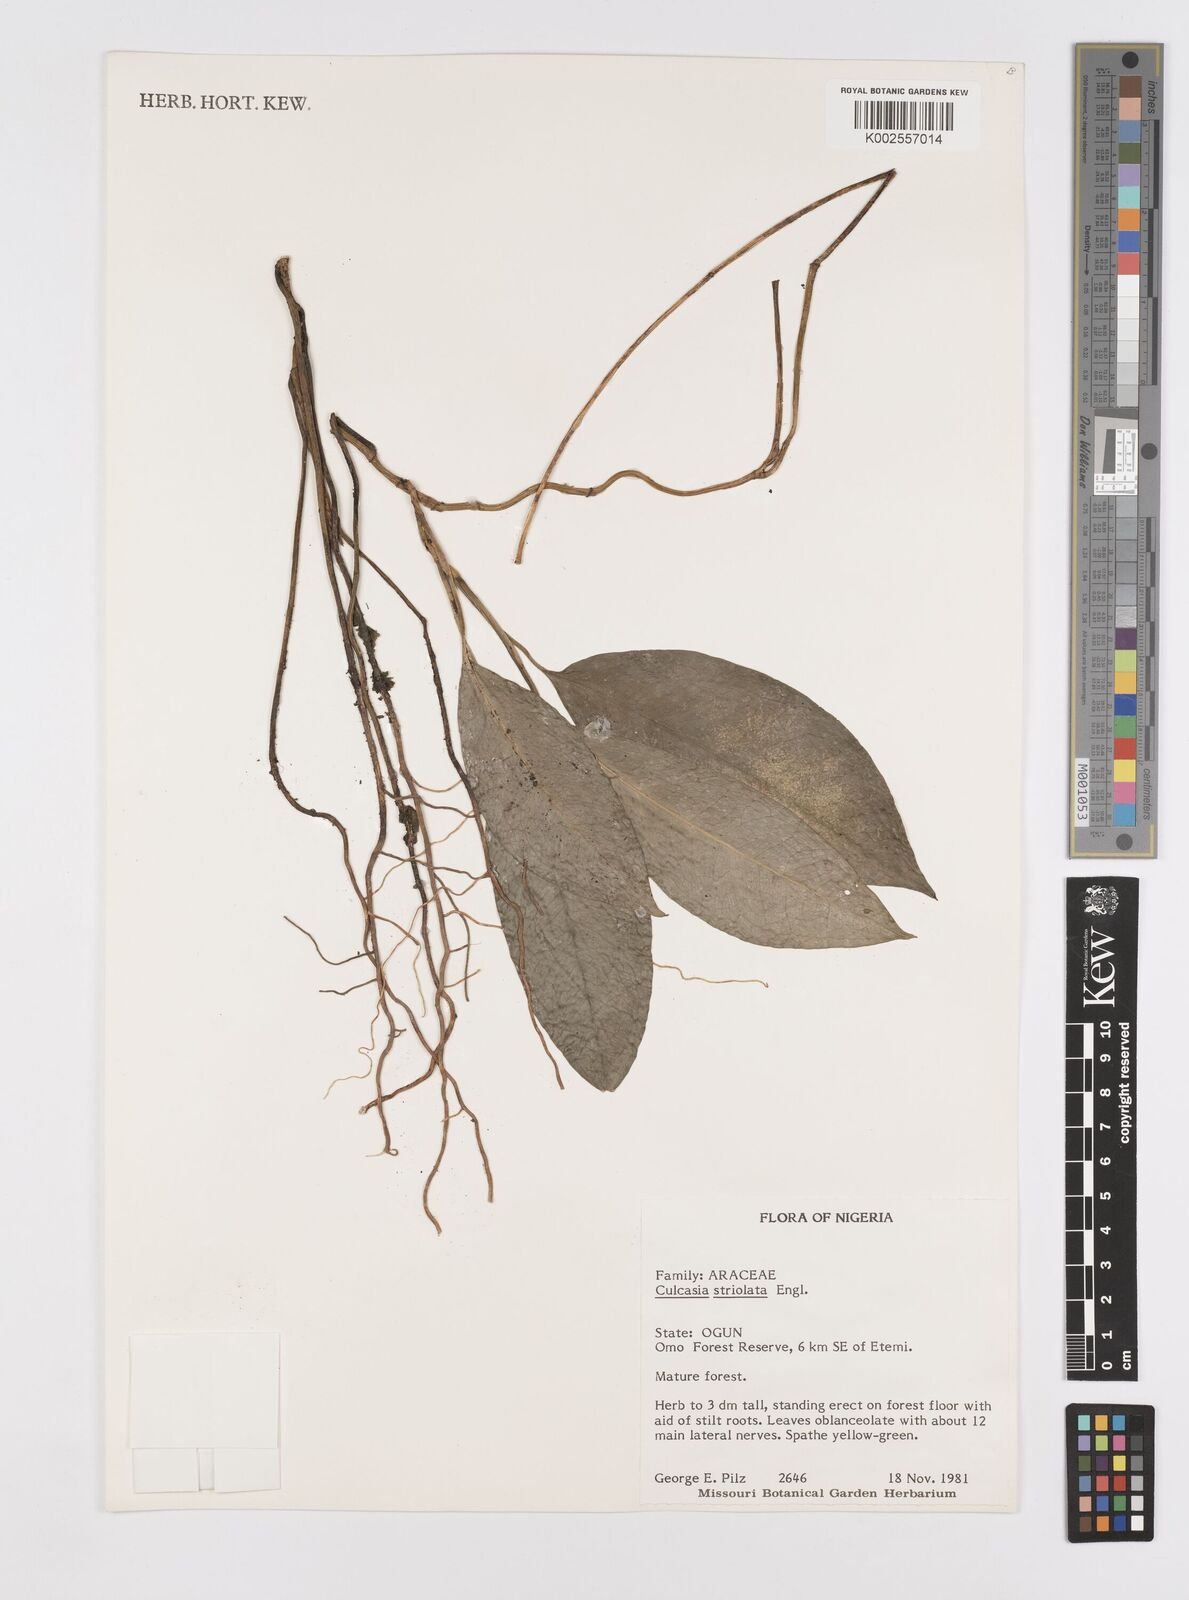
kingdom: Plantae
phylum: Tracheophyta
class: Liliopsida
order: Alismatales
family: Araceae
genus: Culcasia
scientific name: Culcasia striolata
